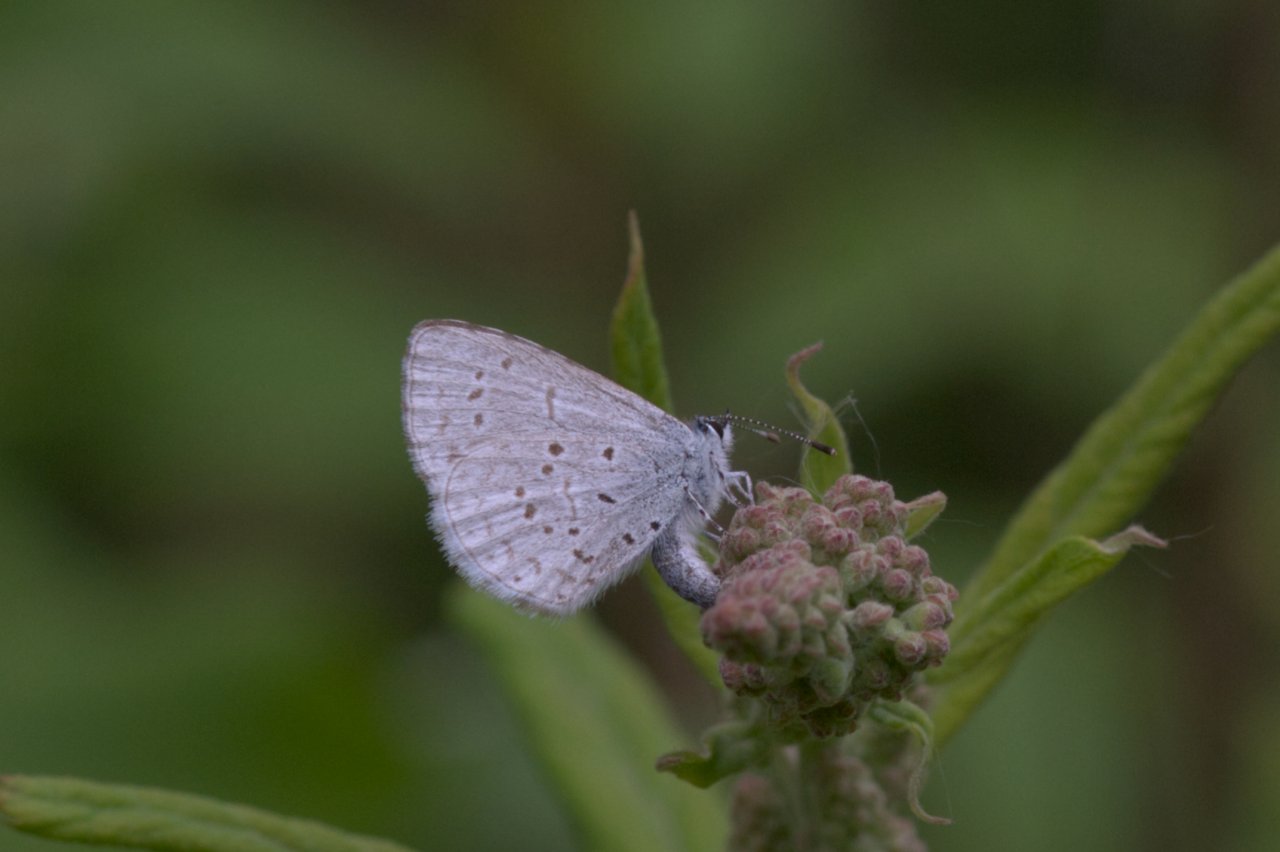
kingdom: Animalia
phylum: Arthropoda
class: Insecta
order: Lepidoptera
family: Lycaenidae
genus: Celastrina
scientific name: Celastrina ladon
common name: Echo Azure
